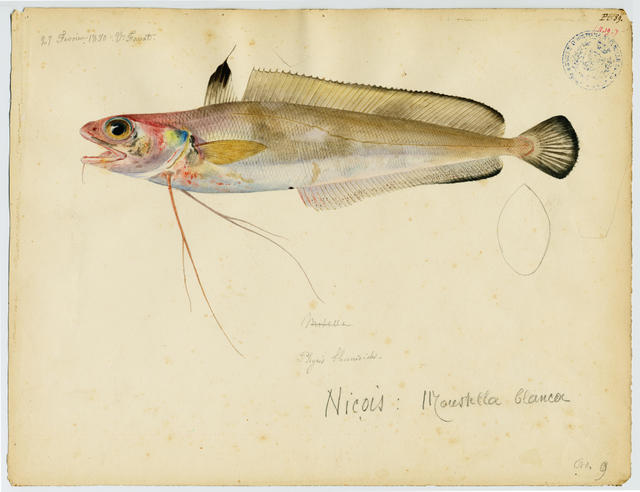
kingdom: Animalia
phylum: Chordata
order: Gadiformes
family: Phycidae
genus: Phycis
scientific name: Phycis blennoides
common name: Forked hake
